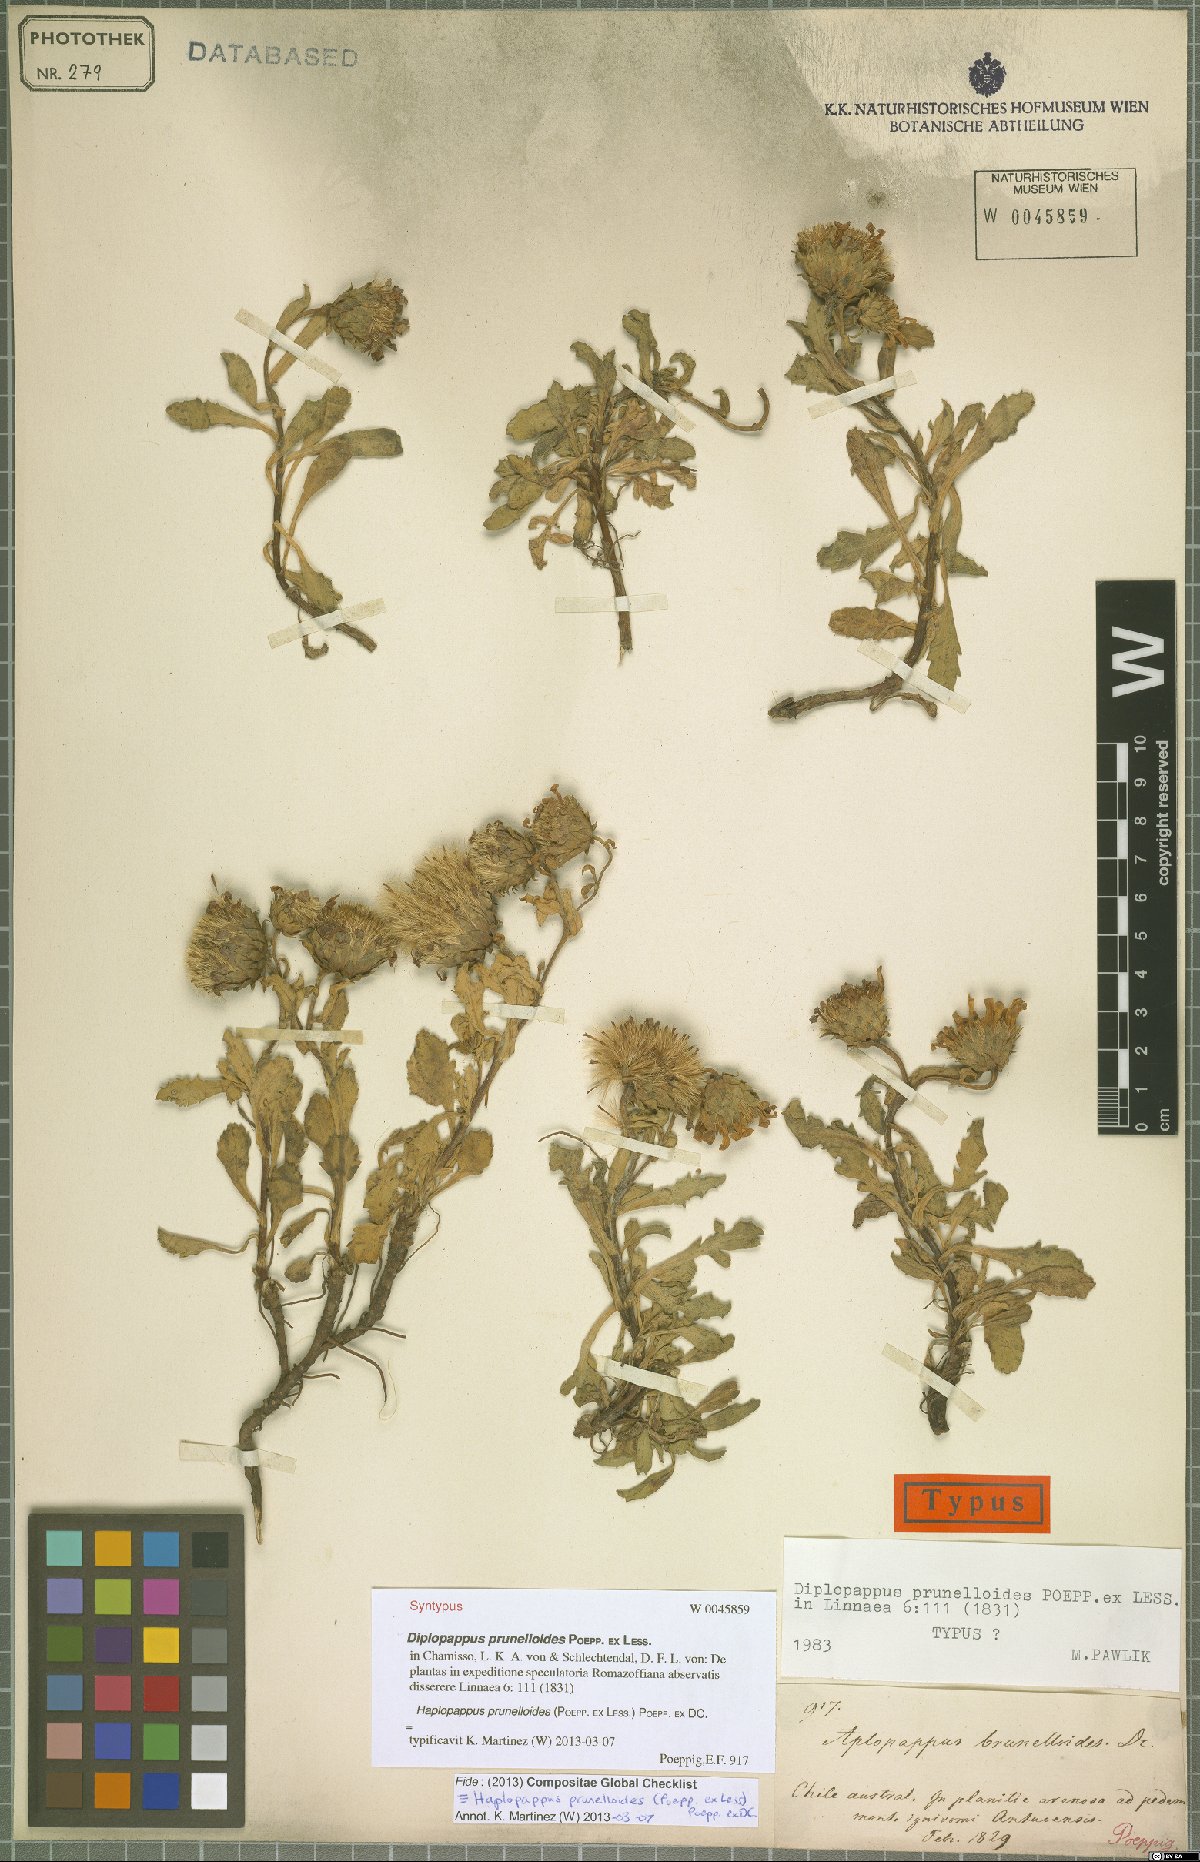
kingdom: Plantae
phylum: Tracheophyta
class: Magnoliopsida
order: Asterales
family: Asteraceae
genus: Notopappus
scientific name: Notopappus prunelloides
